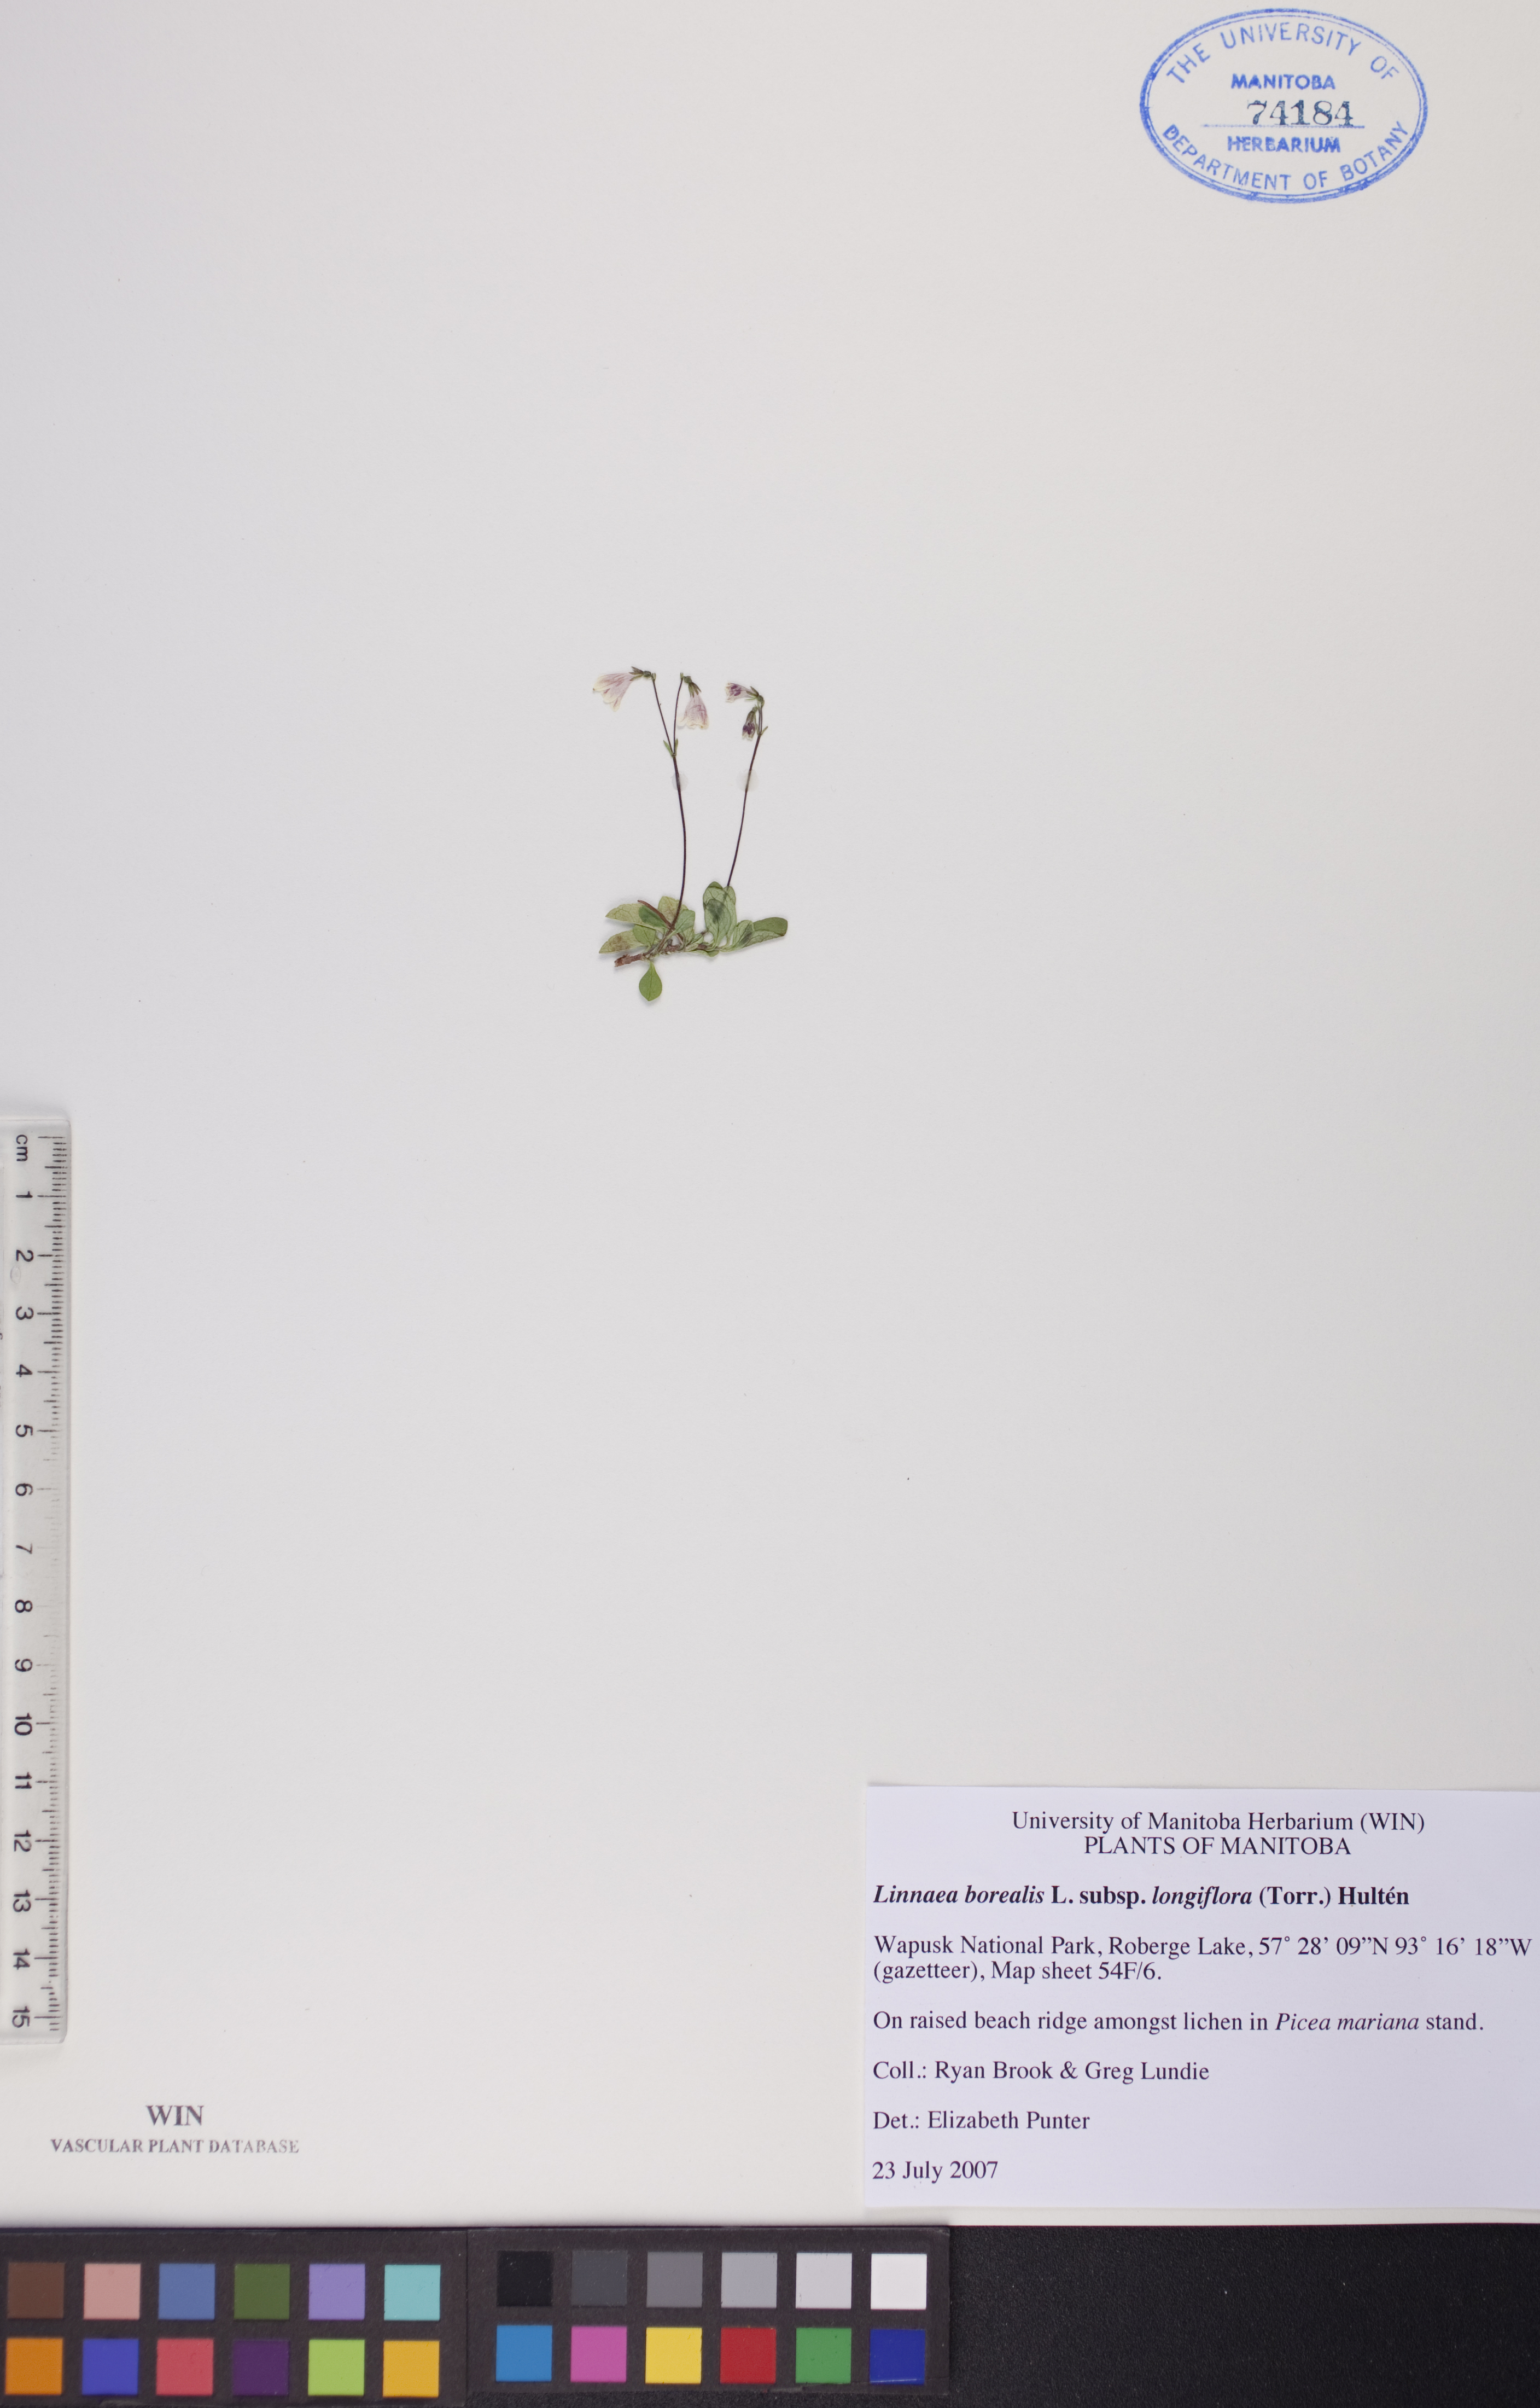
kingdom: Plantae
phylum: Tracheophyta
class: Magnoliopsida
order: Dipsacales
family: Caprifoliaceae
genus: Linnaea
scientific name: Linnaea borealis
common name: Twinflower
